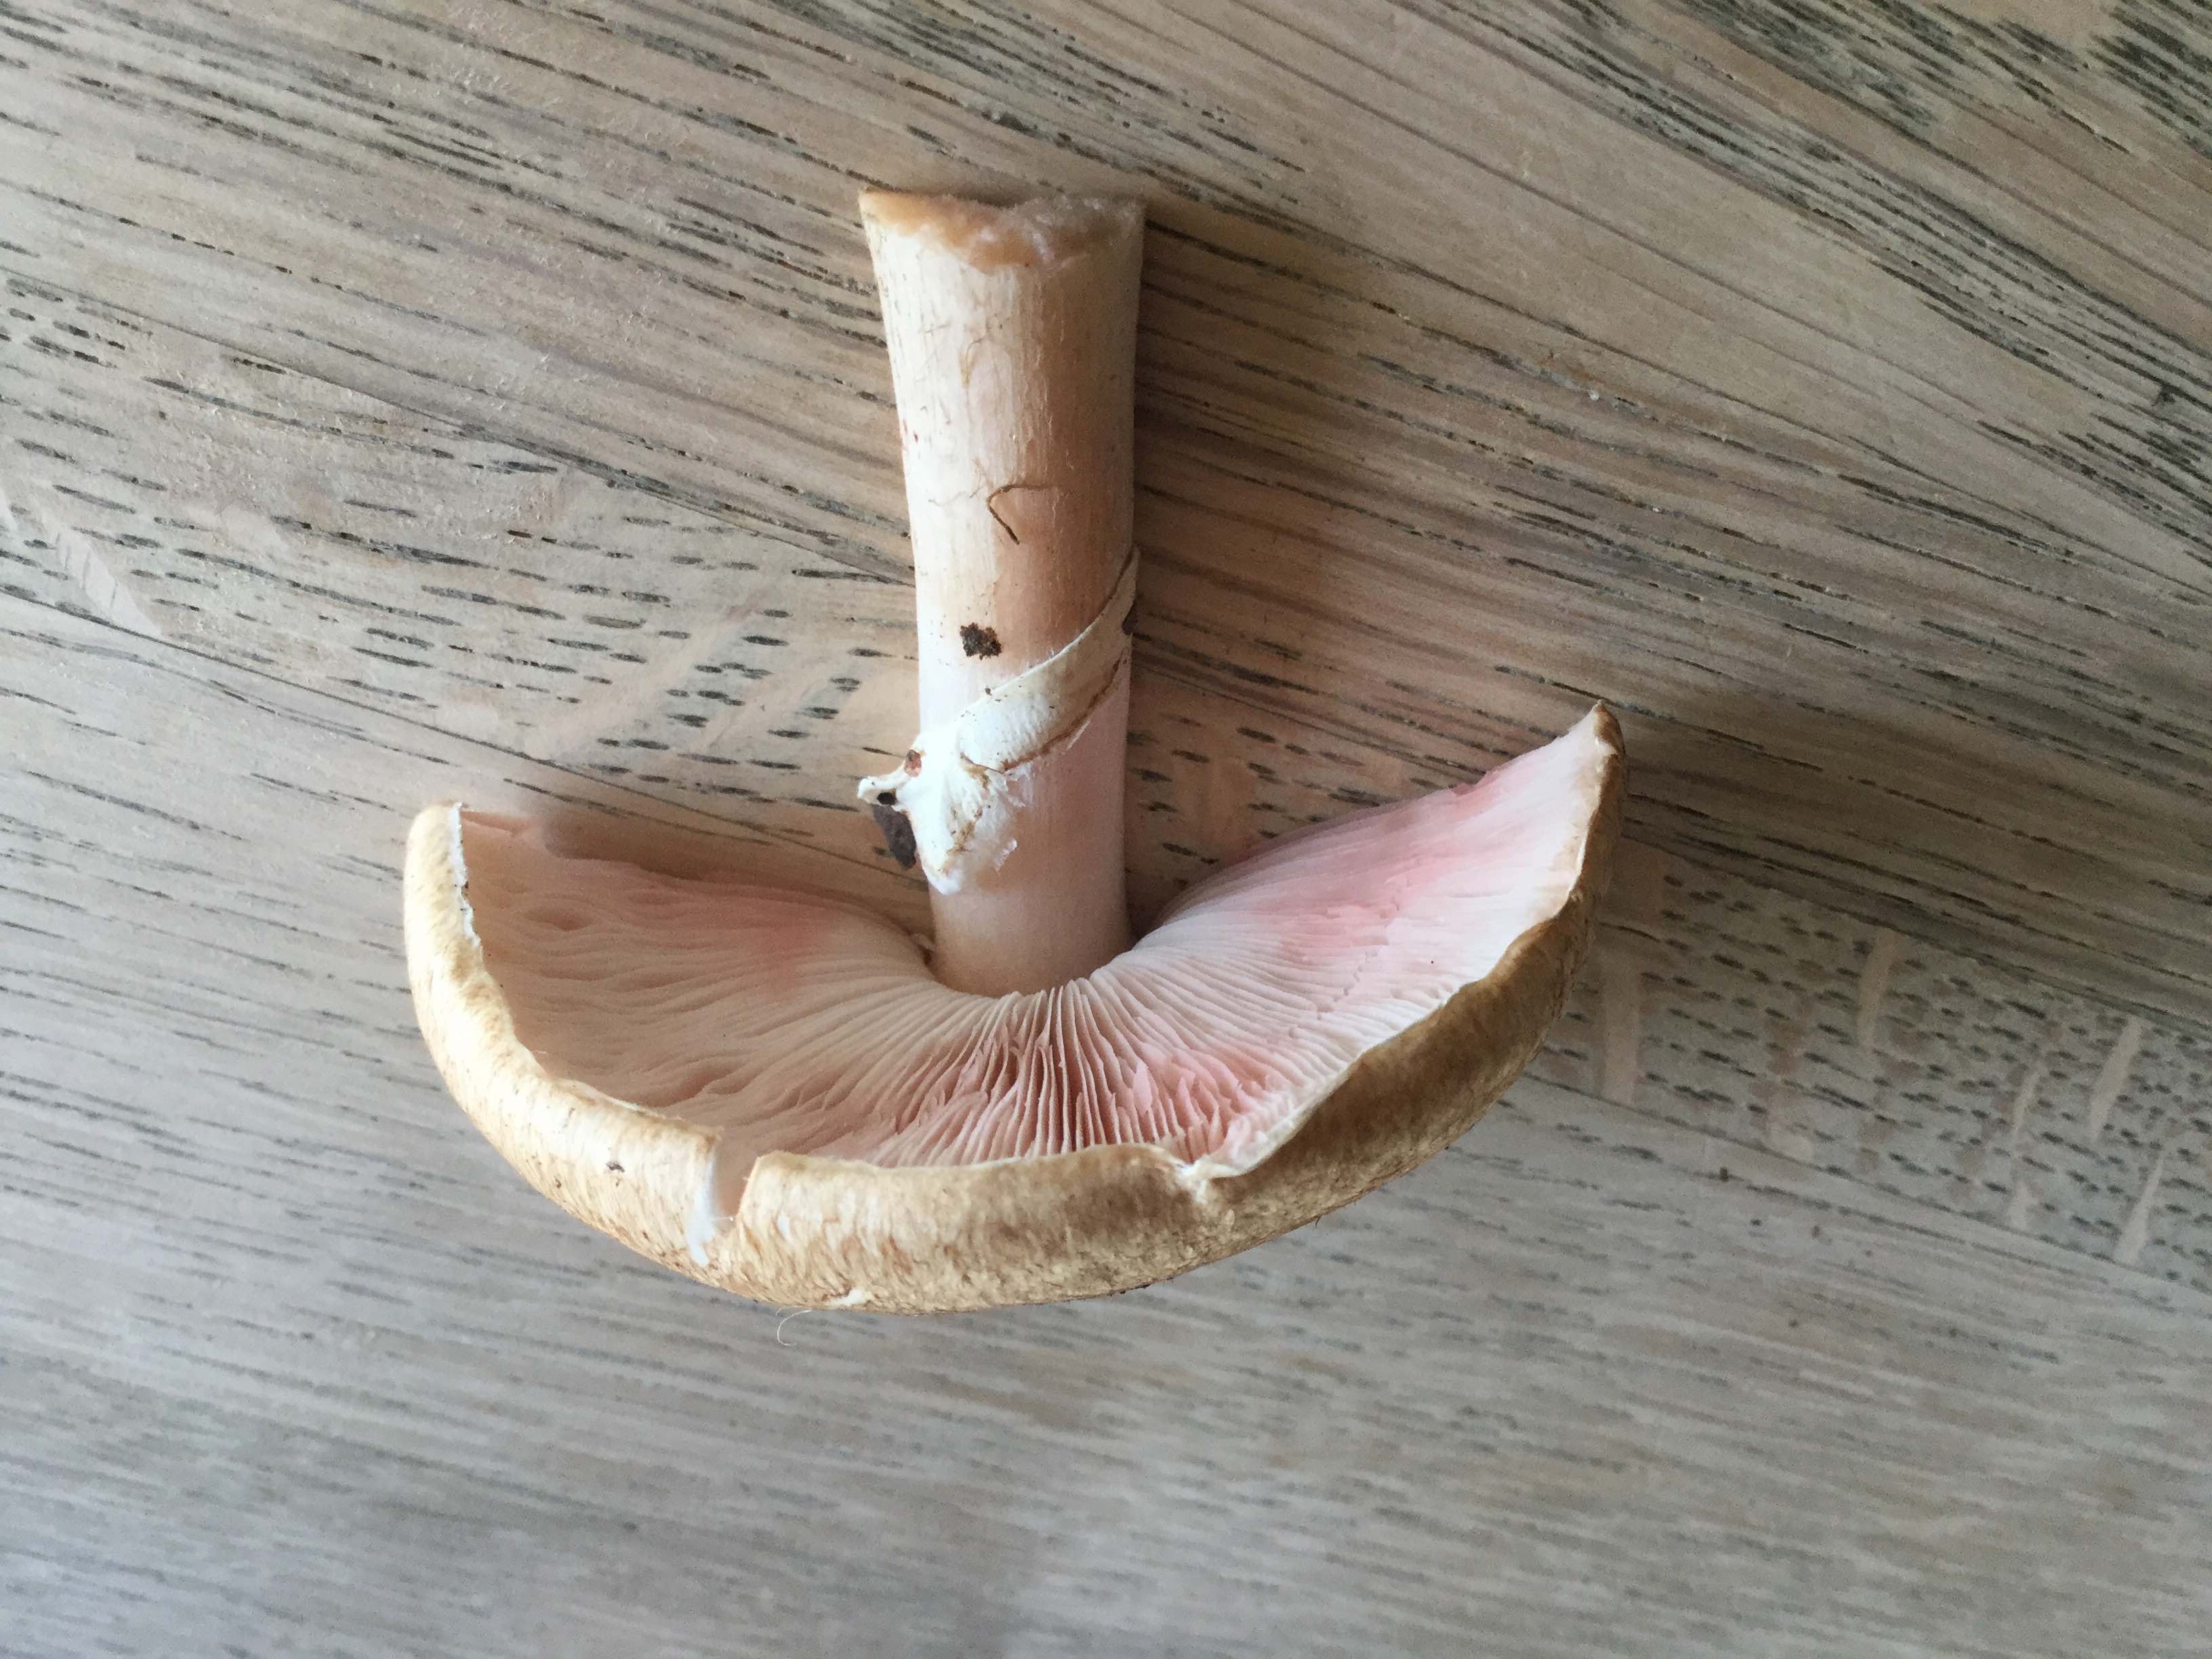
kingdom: Fungi
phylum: Basidiomycota
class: Agaricomycetes
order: Agaricales
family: Agaricaceae
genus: Agaricus
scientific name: Agaricus
